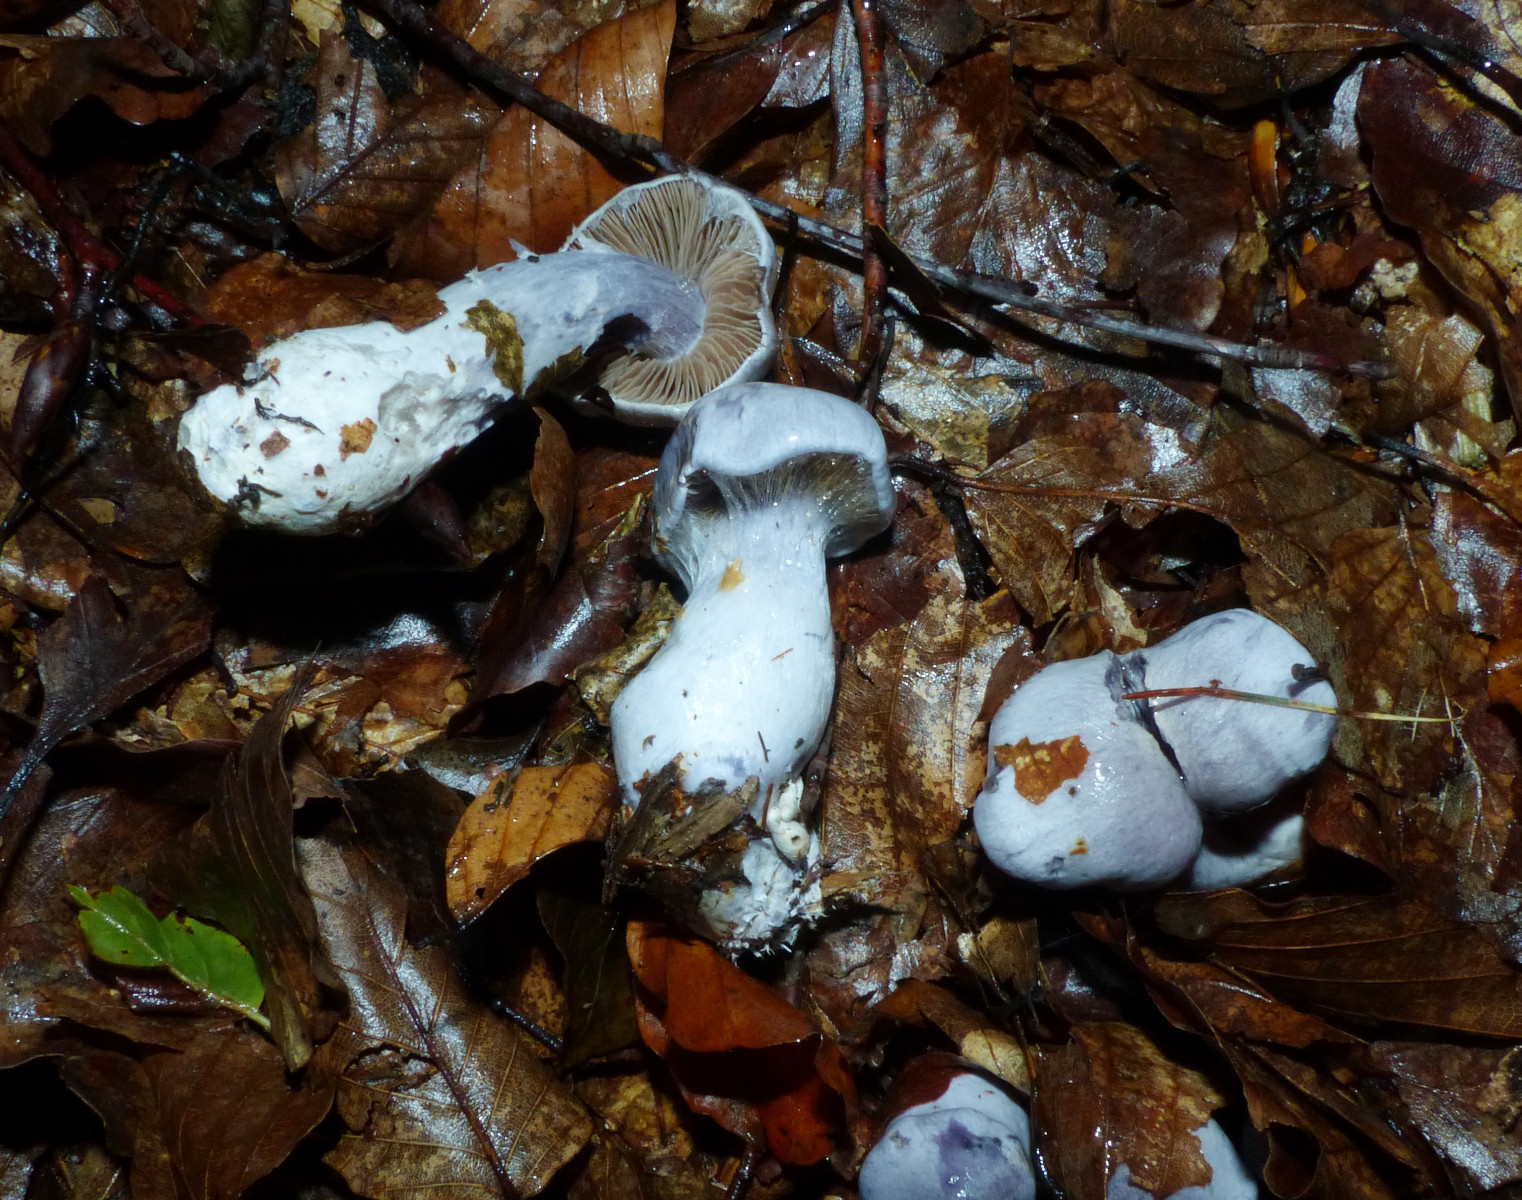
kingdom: Fungi
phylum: Basidiomycota
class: Agaricomycetes
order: Agaricales
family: Cortinariaceae
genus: Cortinarius
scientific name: Cortinarius alboviolaceus
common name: lysviolet slørhat
